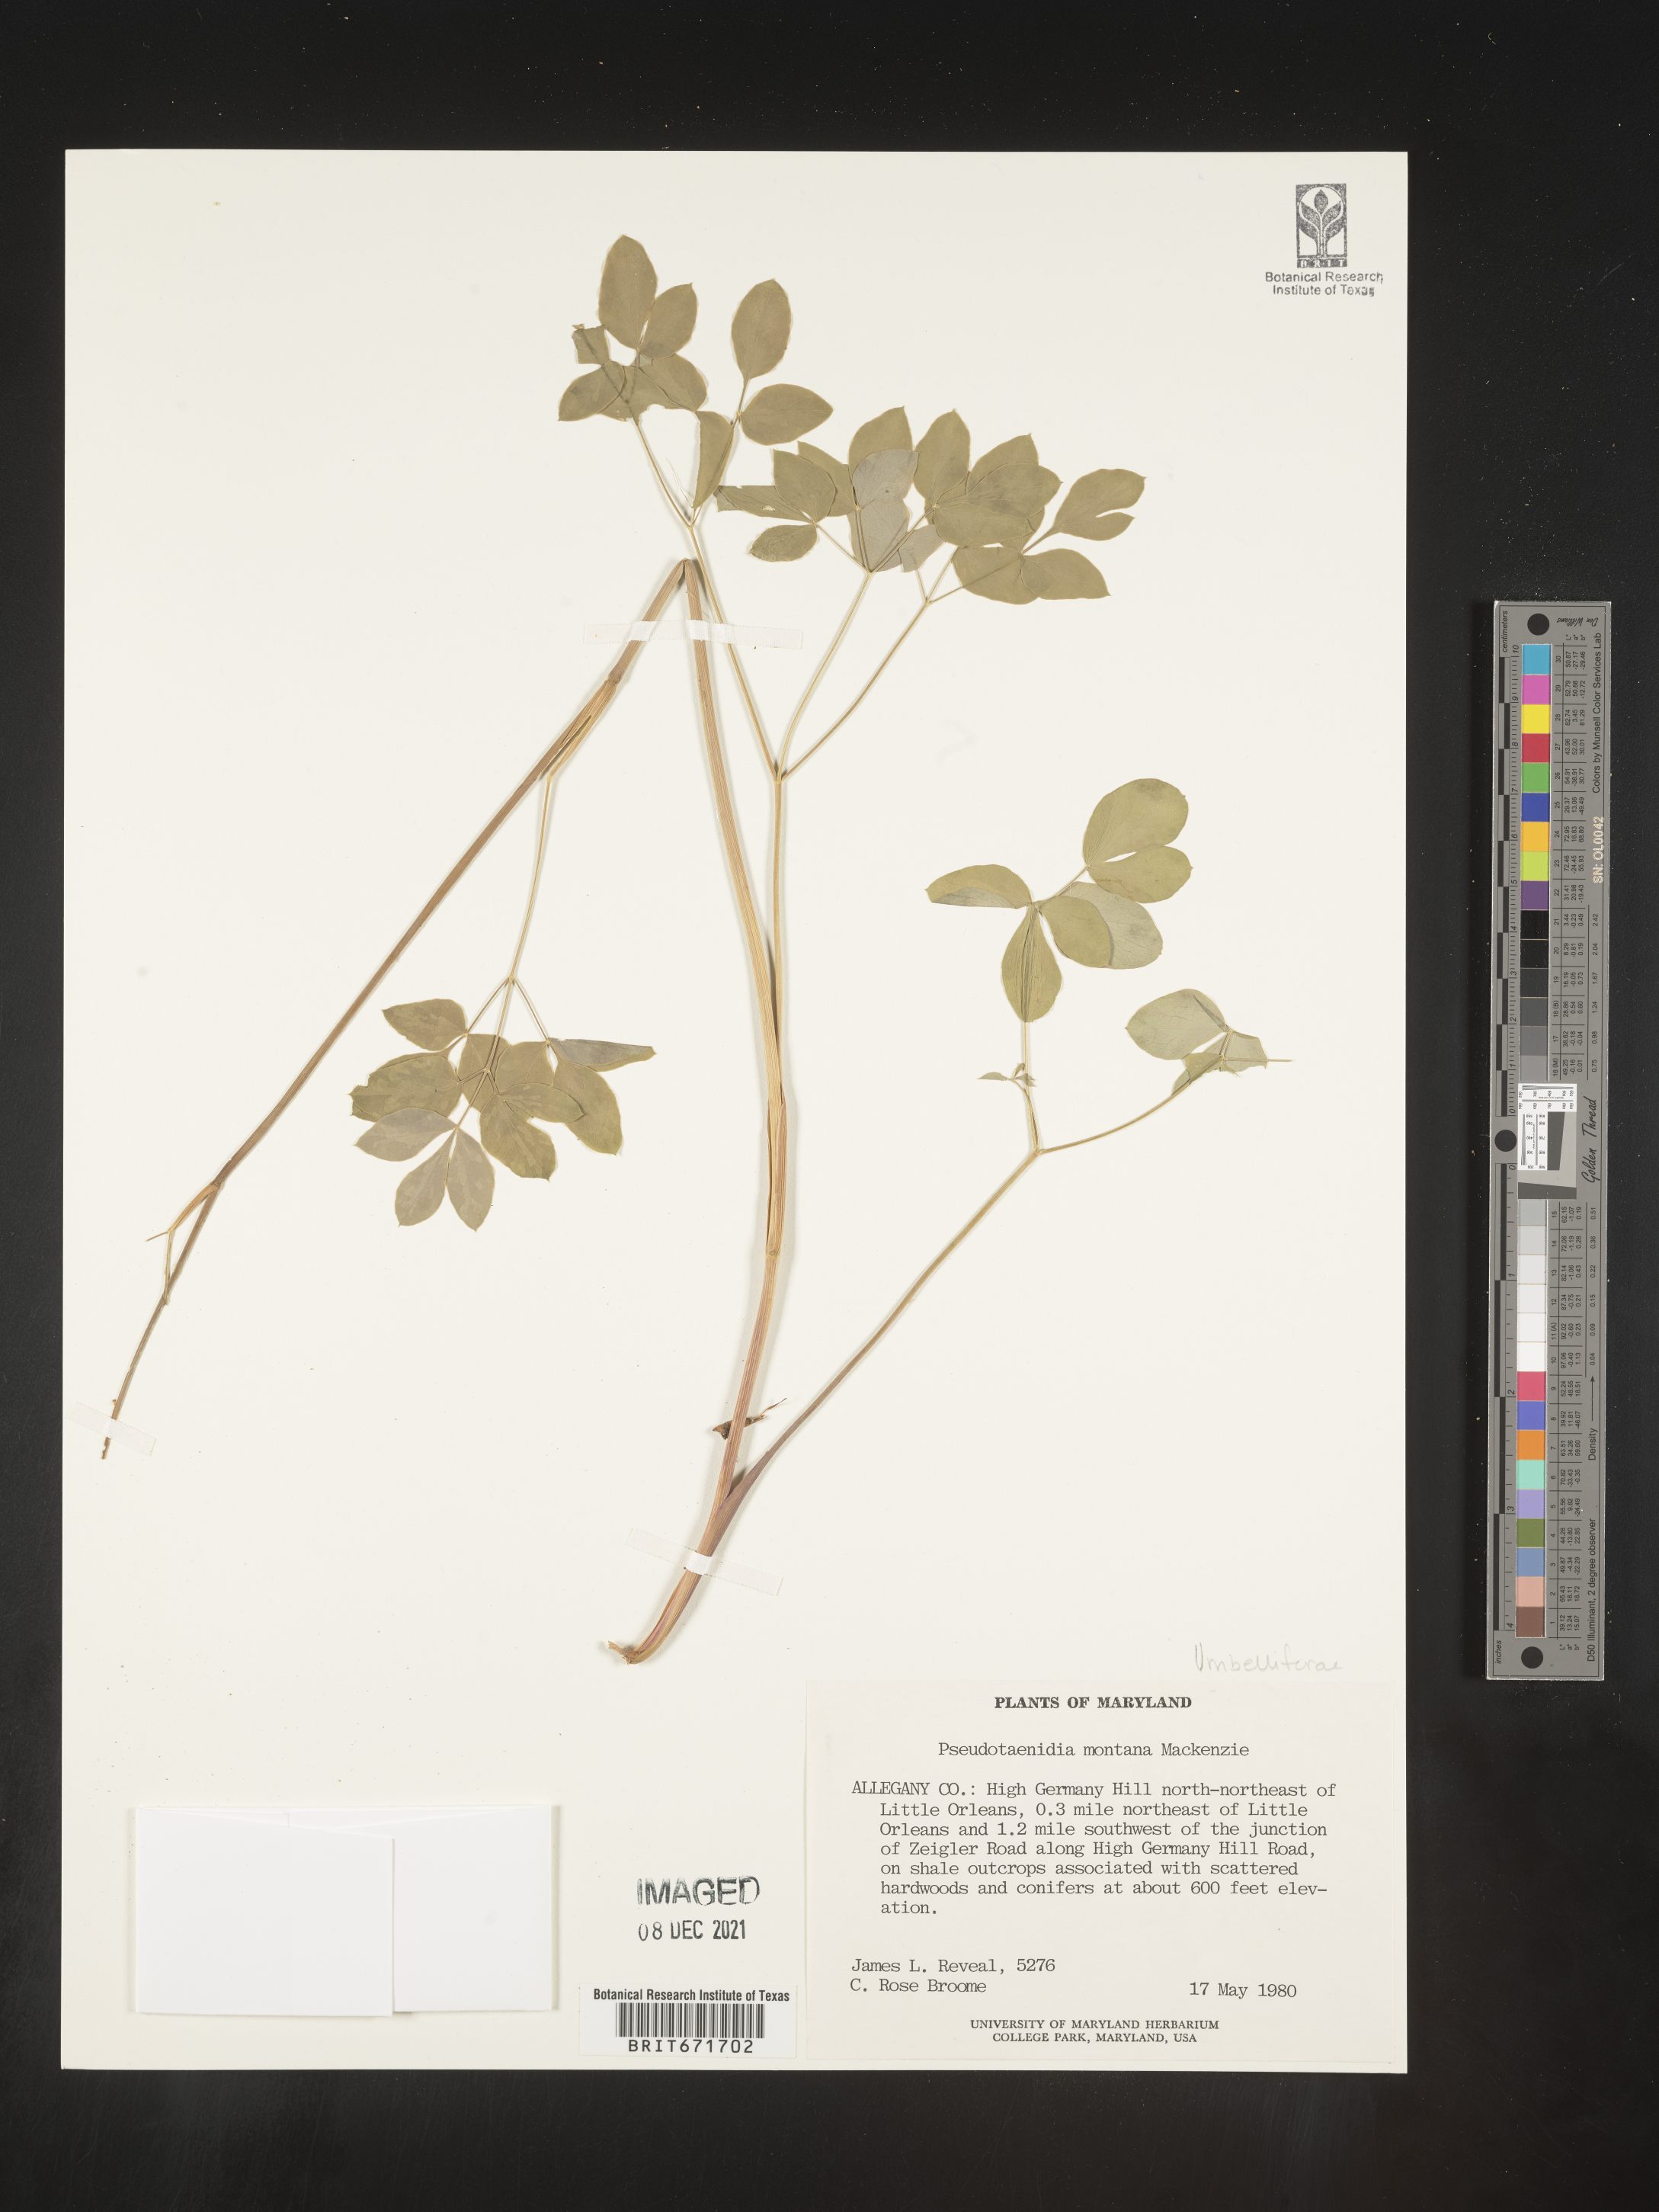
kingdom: Plantae
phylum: Tracheophyta
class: Magnoliopsida
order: Apiales
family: Apiaceae
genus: Taenidia
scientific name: Taenidia
